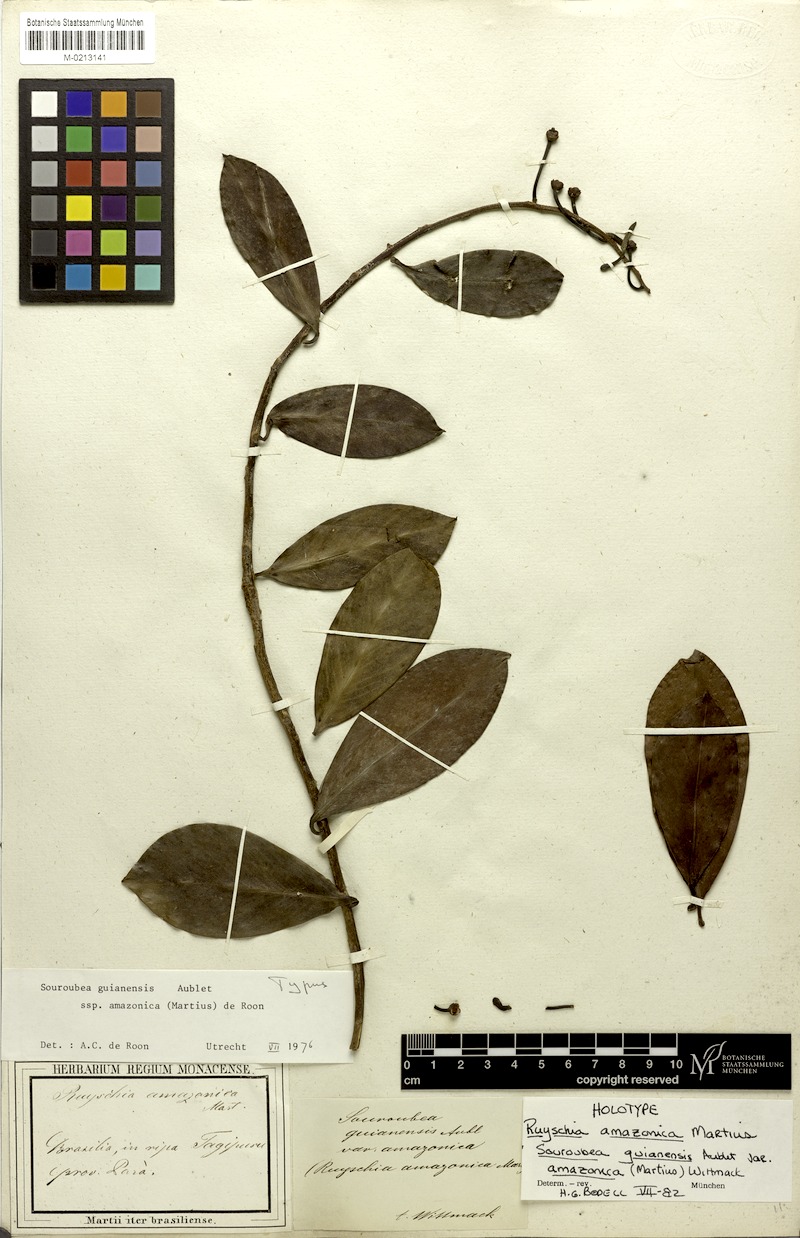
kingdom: Plantae
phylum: Tracheophyta
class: Magnoliopsida
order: Ericales
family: Marcgraviaceae
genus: Souroubea
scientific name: Souroubea guianensis
